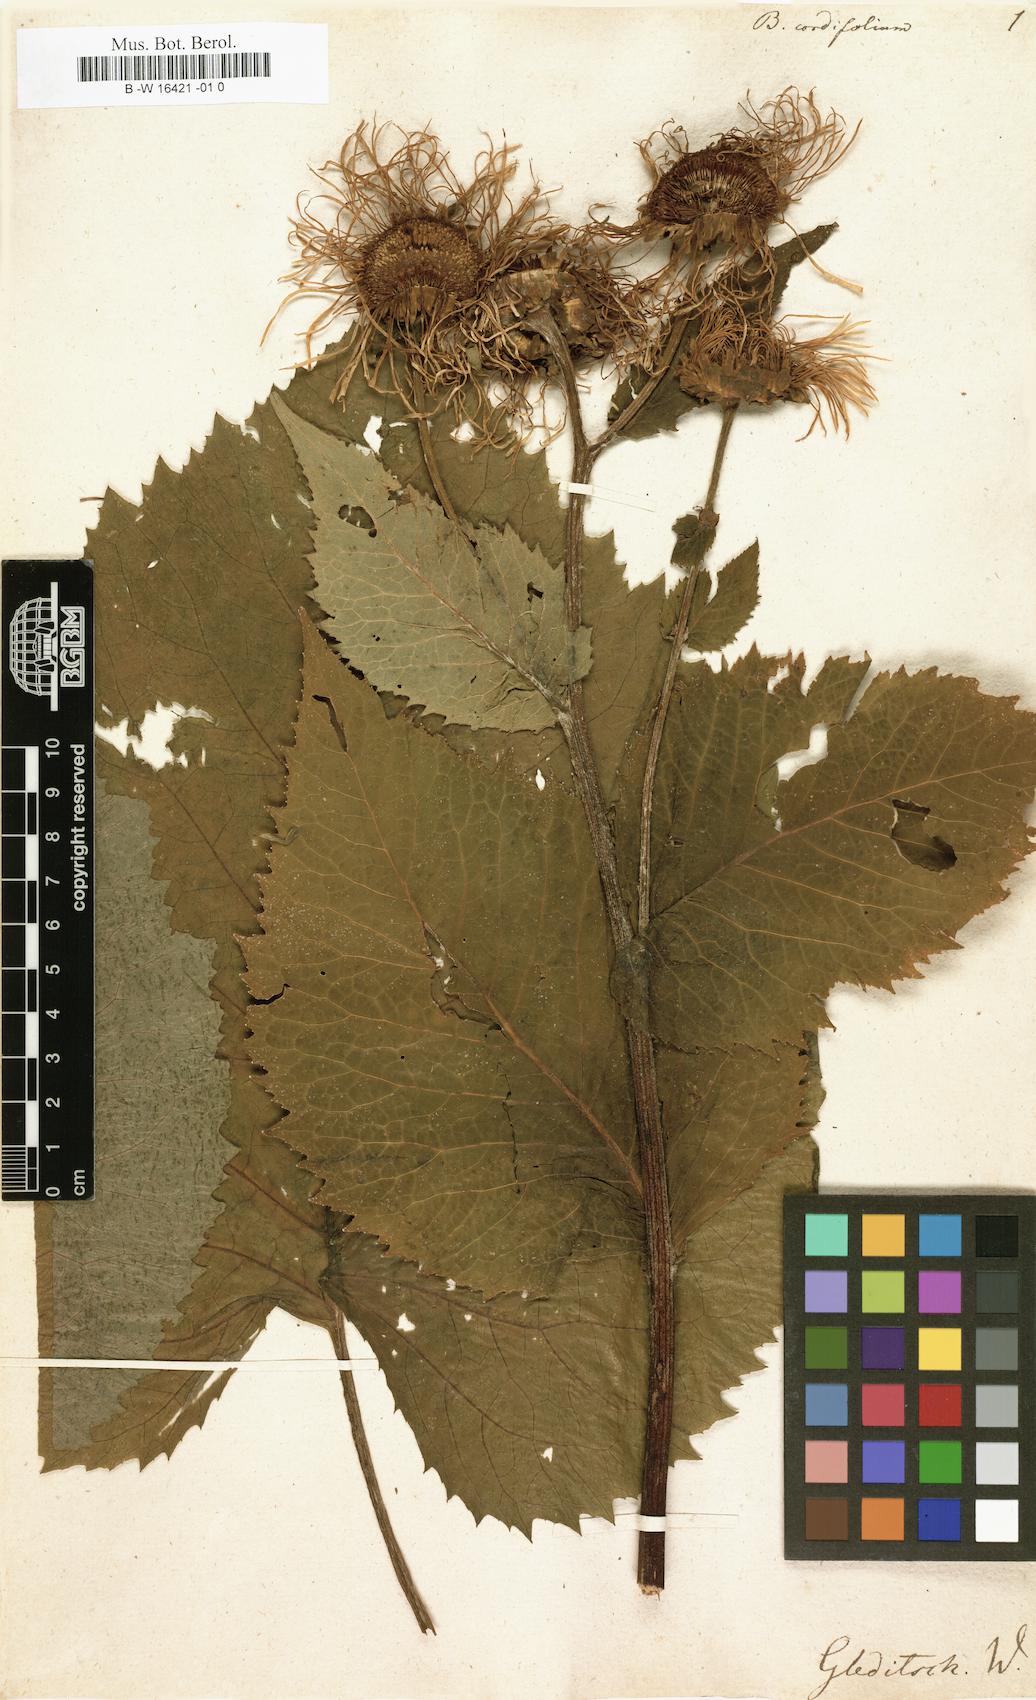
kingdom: Plantae
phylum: Tracheophyta
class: Magnoliopsida
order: Asterales
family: Asteraceae
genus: Telekia
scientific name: Telekia speciosa
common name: Yellow oxeye
